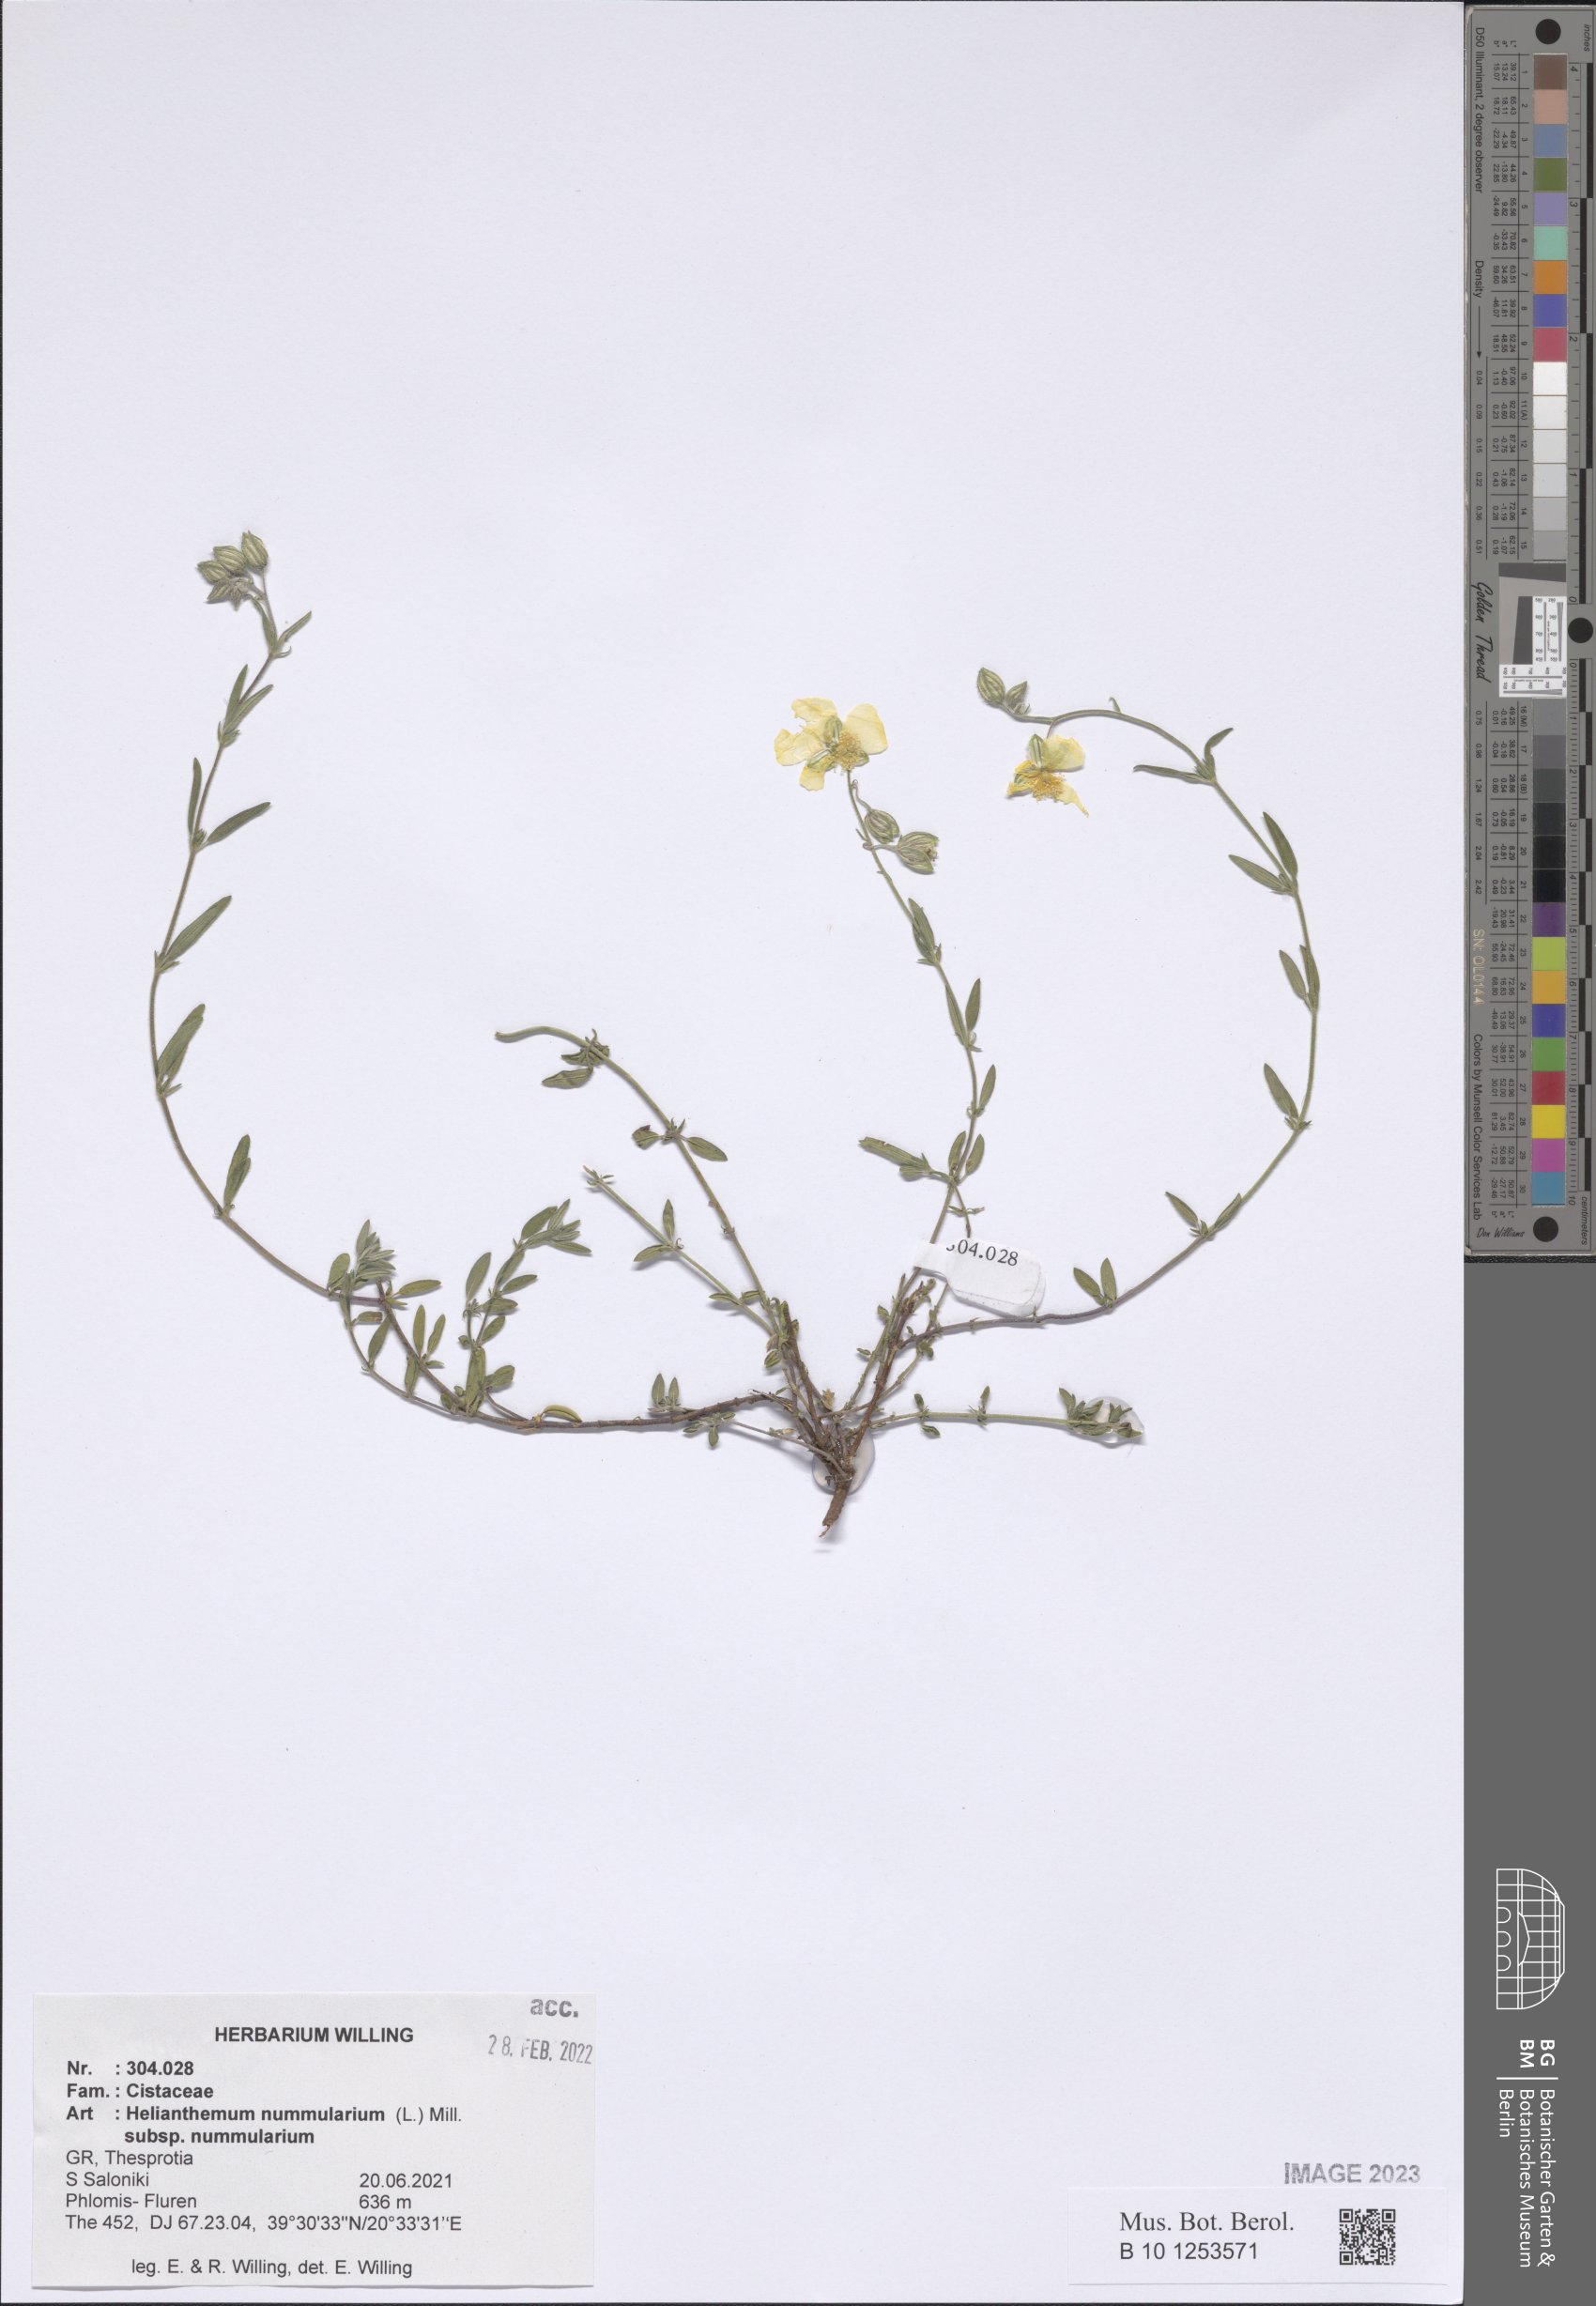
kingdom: Plantae
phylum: Tracheophyta
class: Magnoliopsida
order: Malvales
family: Cistaceae
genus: Helianthemum
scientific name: Helianthemum nummularium
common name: Common rock-rose
